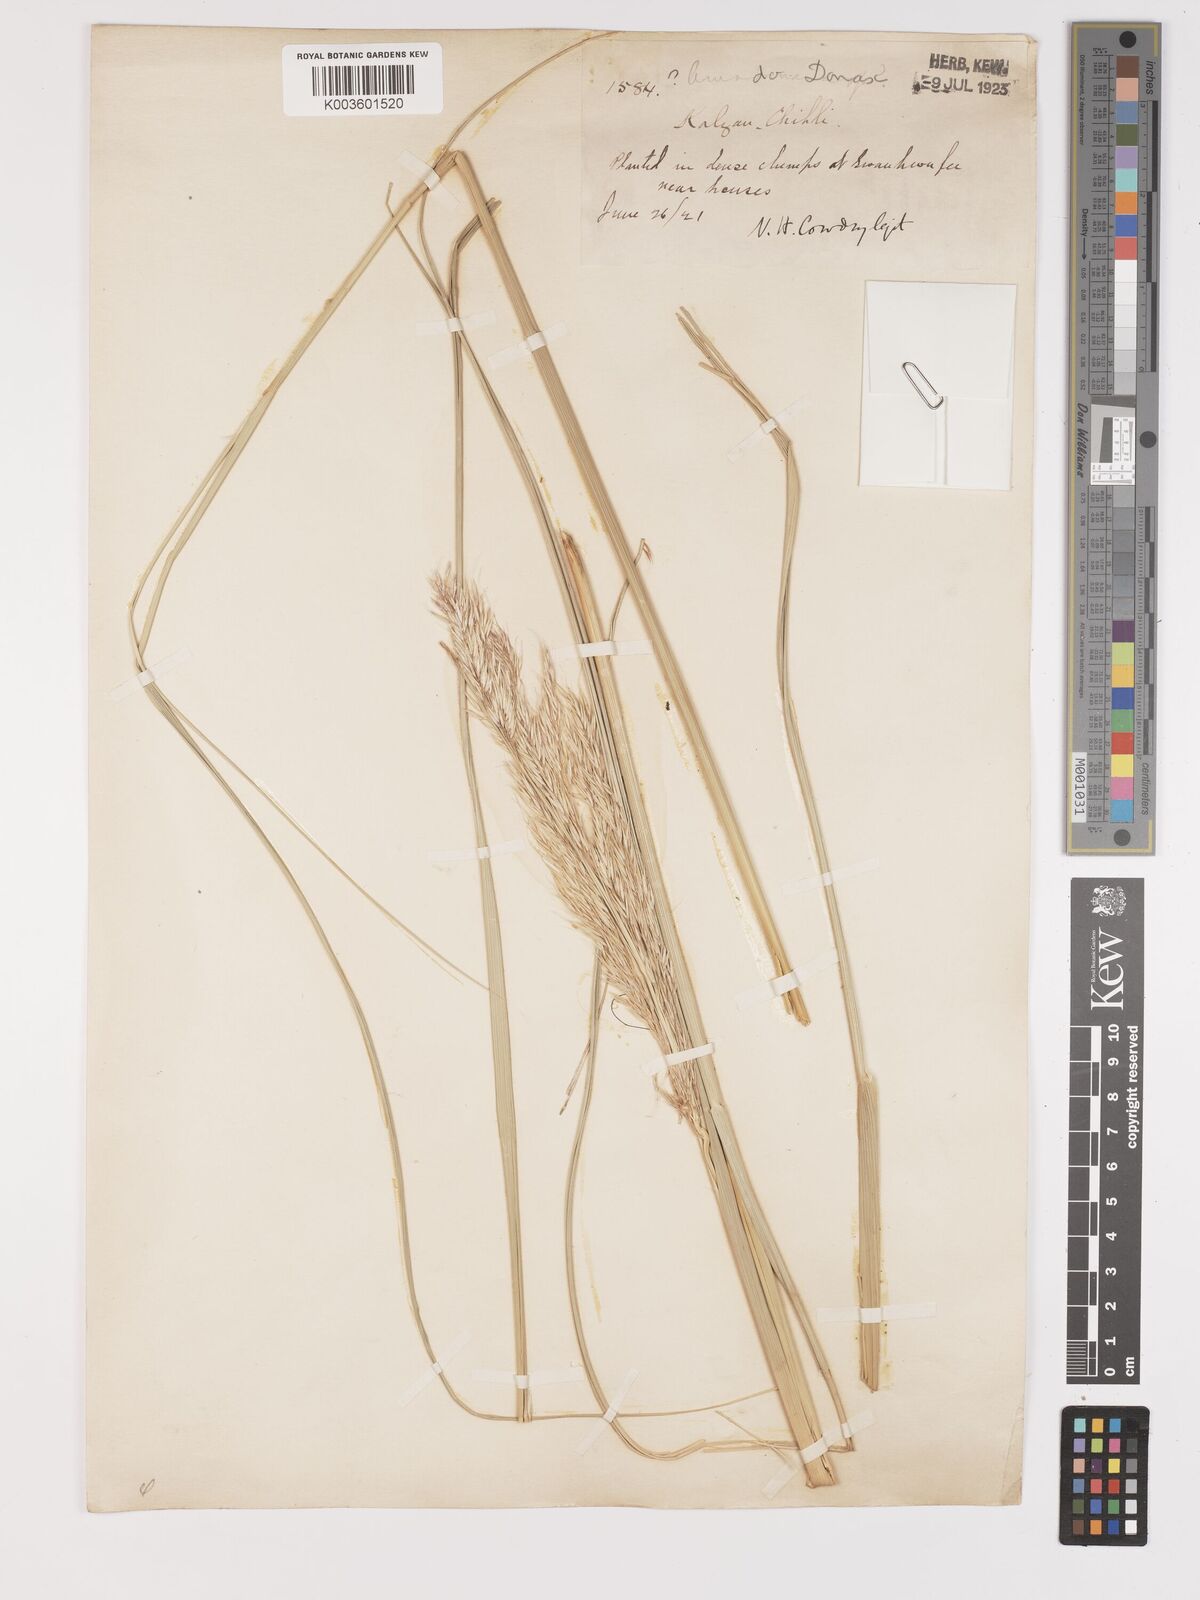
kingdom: Plantae
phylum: Tracheophyta
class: Liliopsida
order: Poales
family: Poaceae
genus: Stipa
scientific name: Stipa
